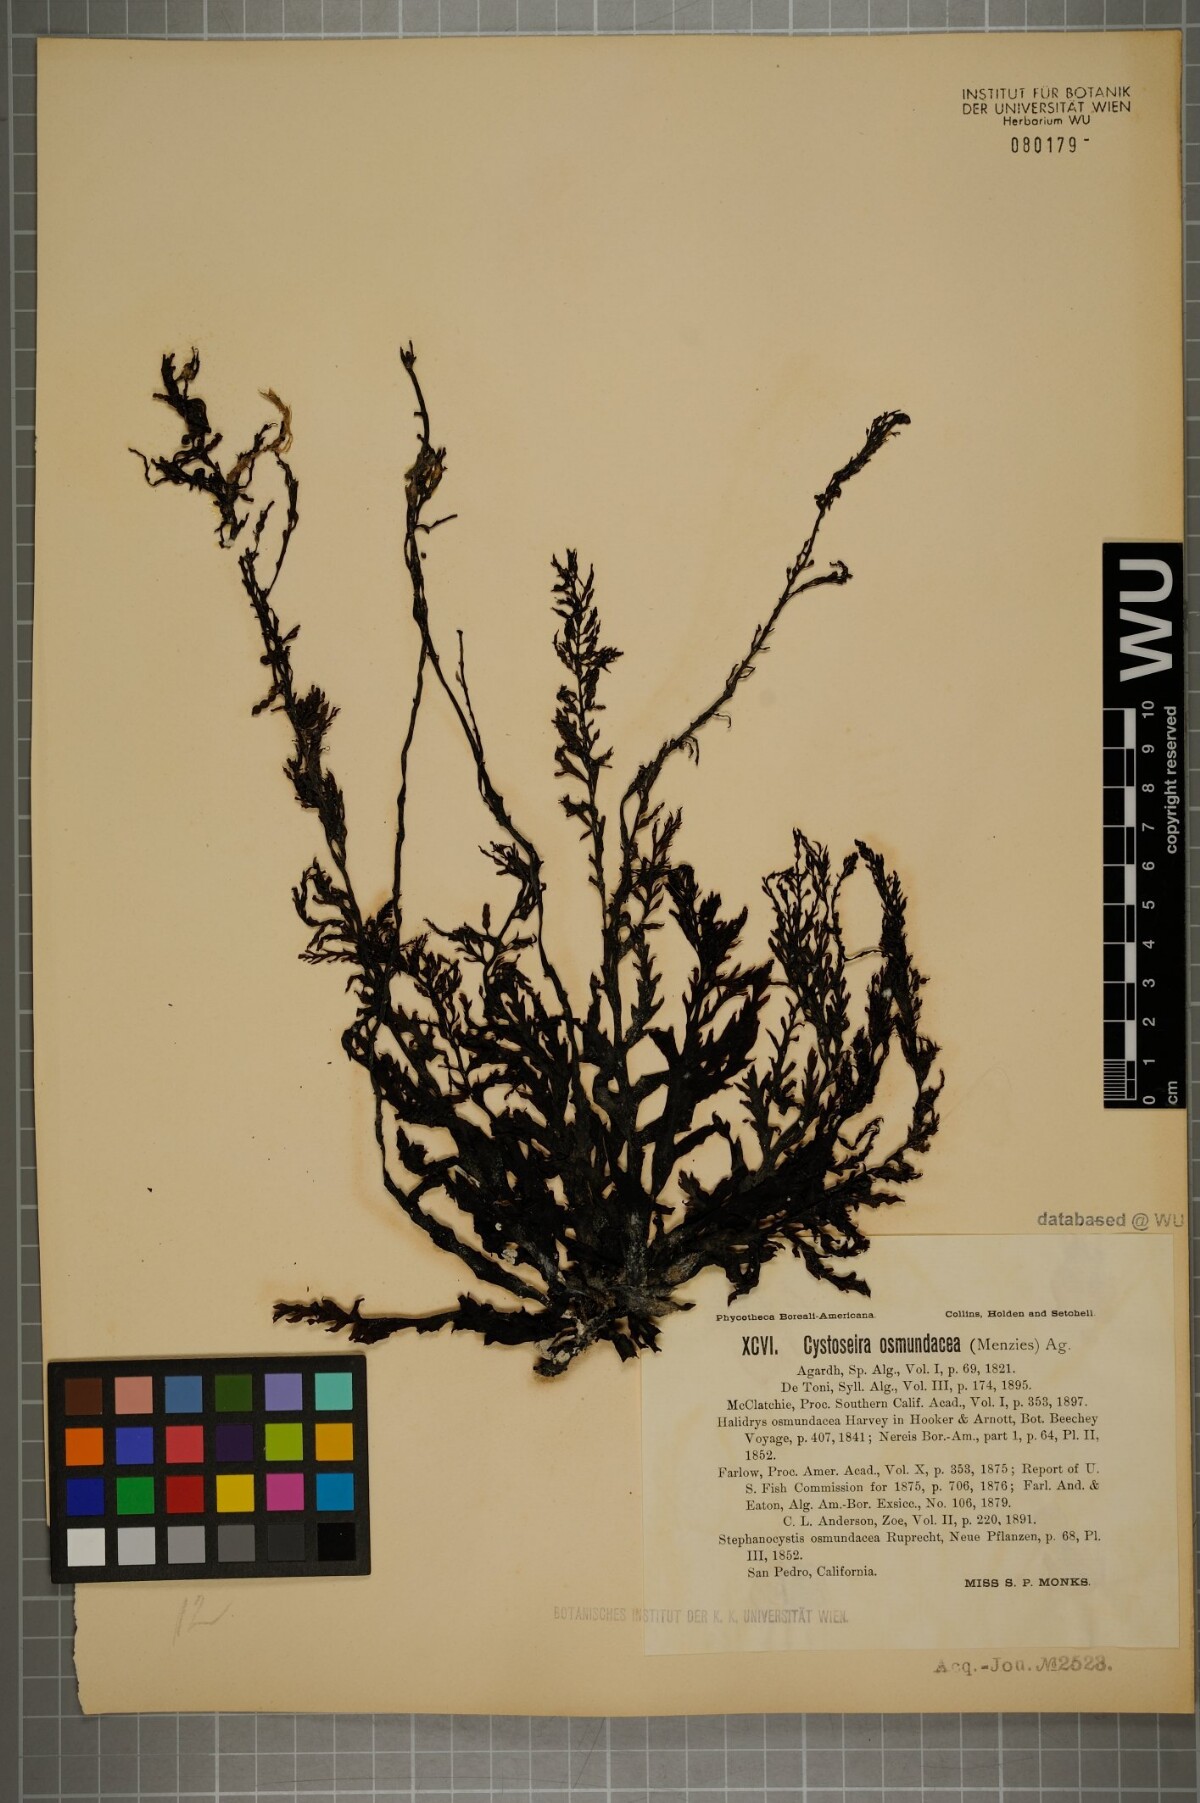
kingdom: Chromista
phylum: Ochrophyta
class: Phaeophyceae
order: Fucales
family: Sargassaceae
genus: Cystoseira
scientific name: Cystoseira osmundacea
